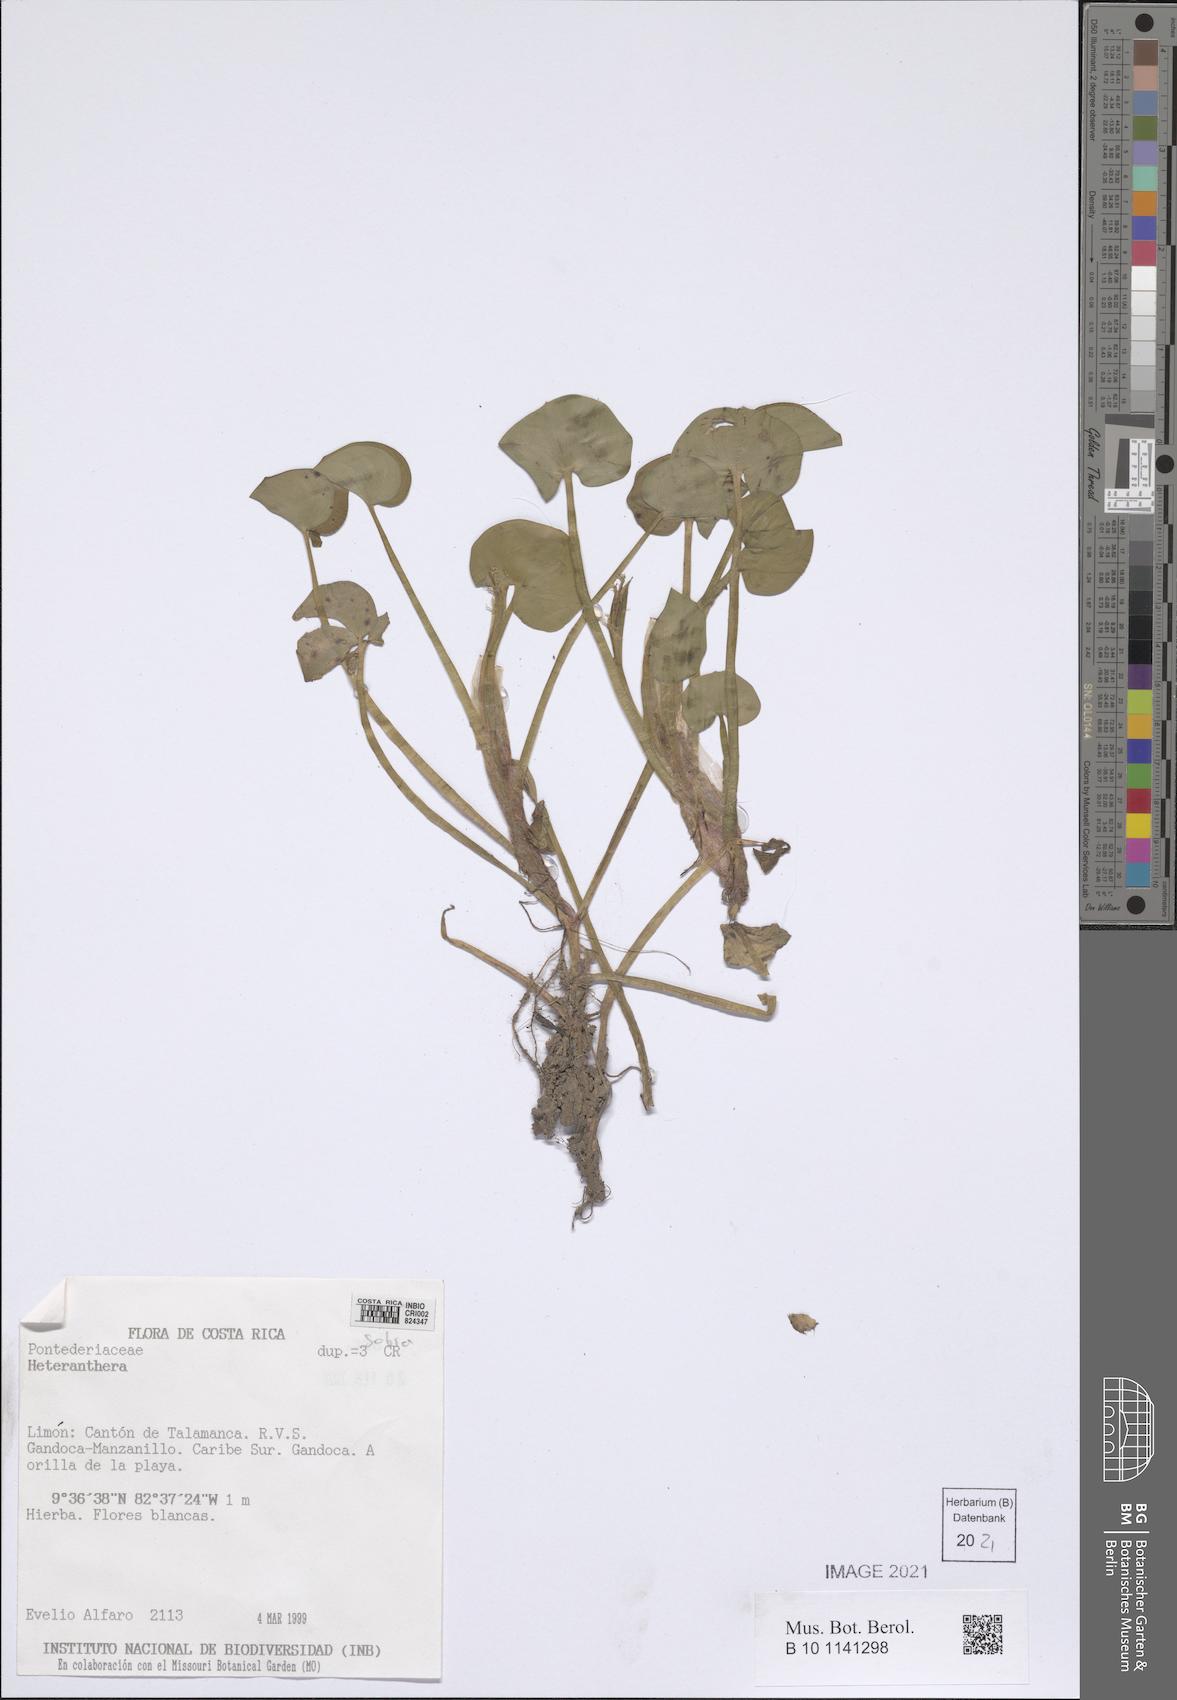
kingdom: Plantae
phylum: Tracheophyta
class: Liliopsida
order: Commelinales
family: Pontederiaceae
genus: Heteranthera
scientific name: Heteranthera
